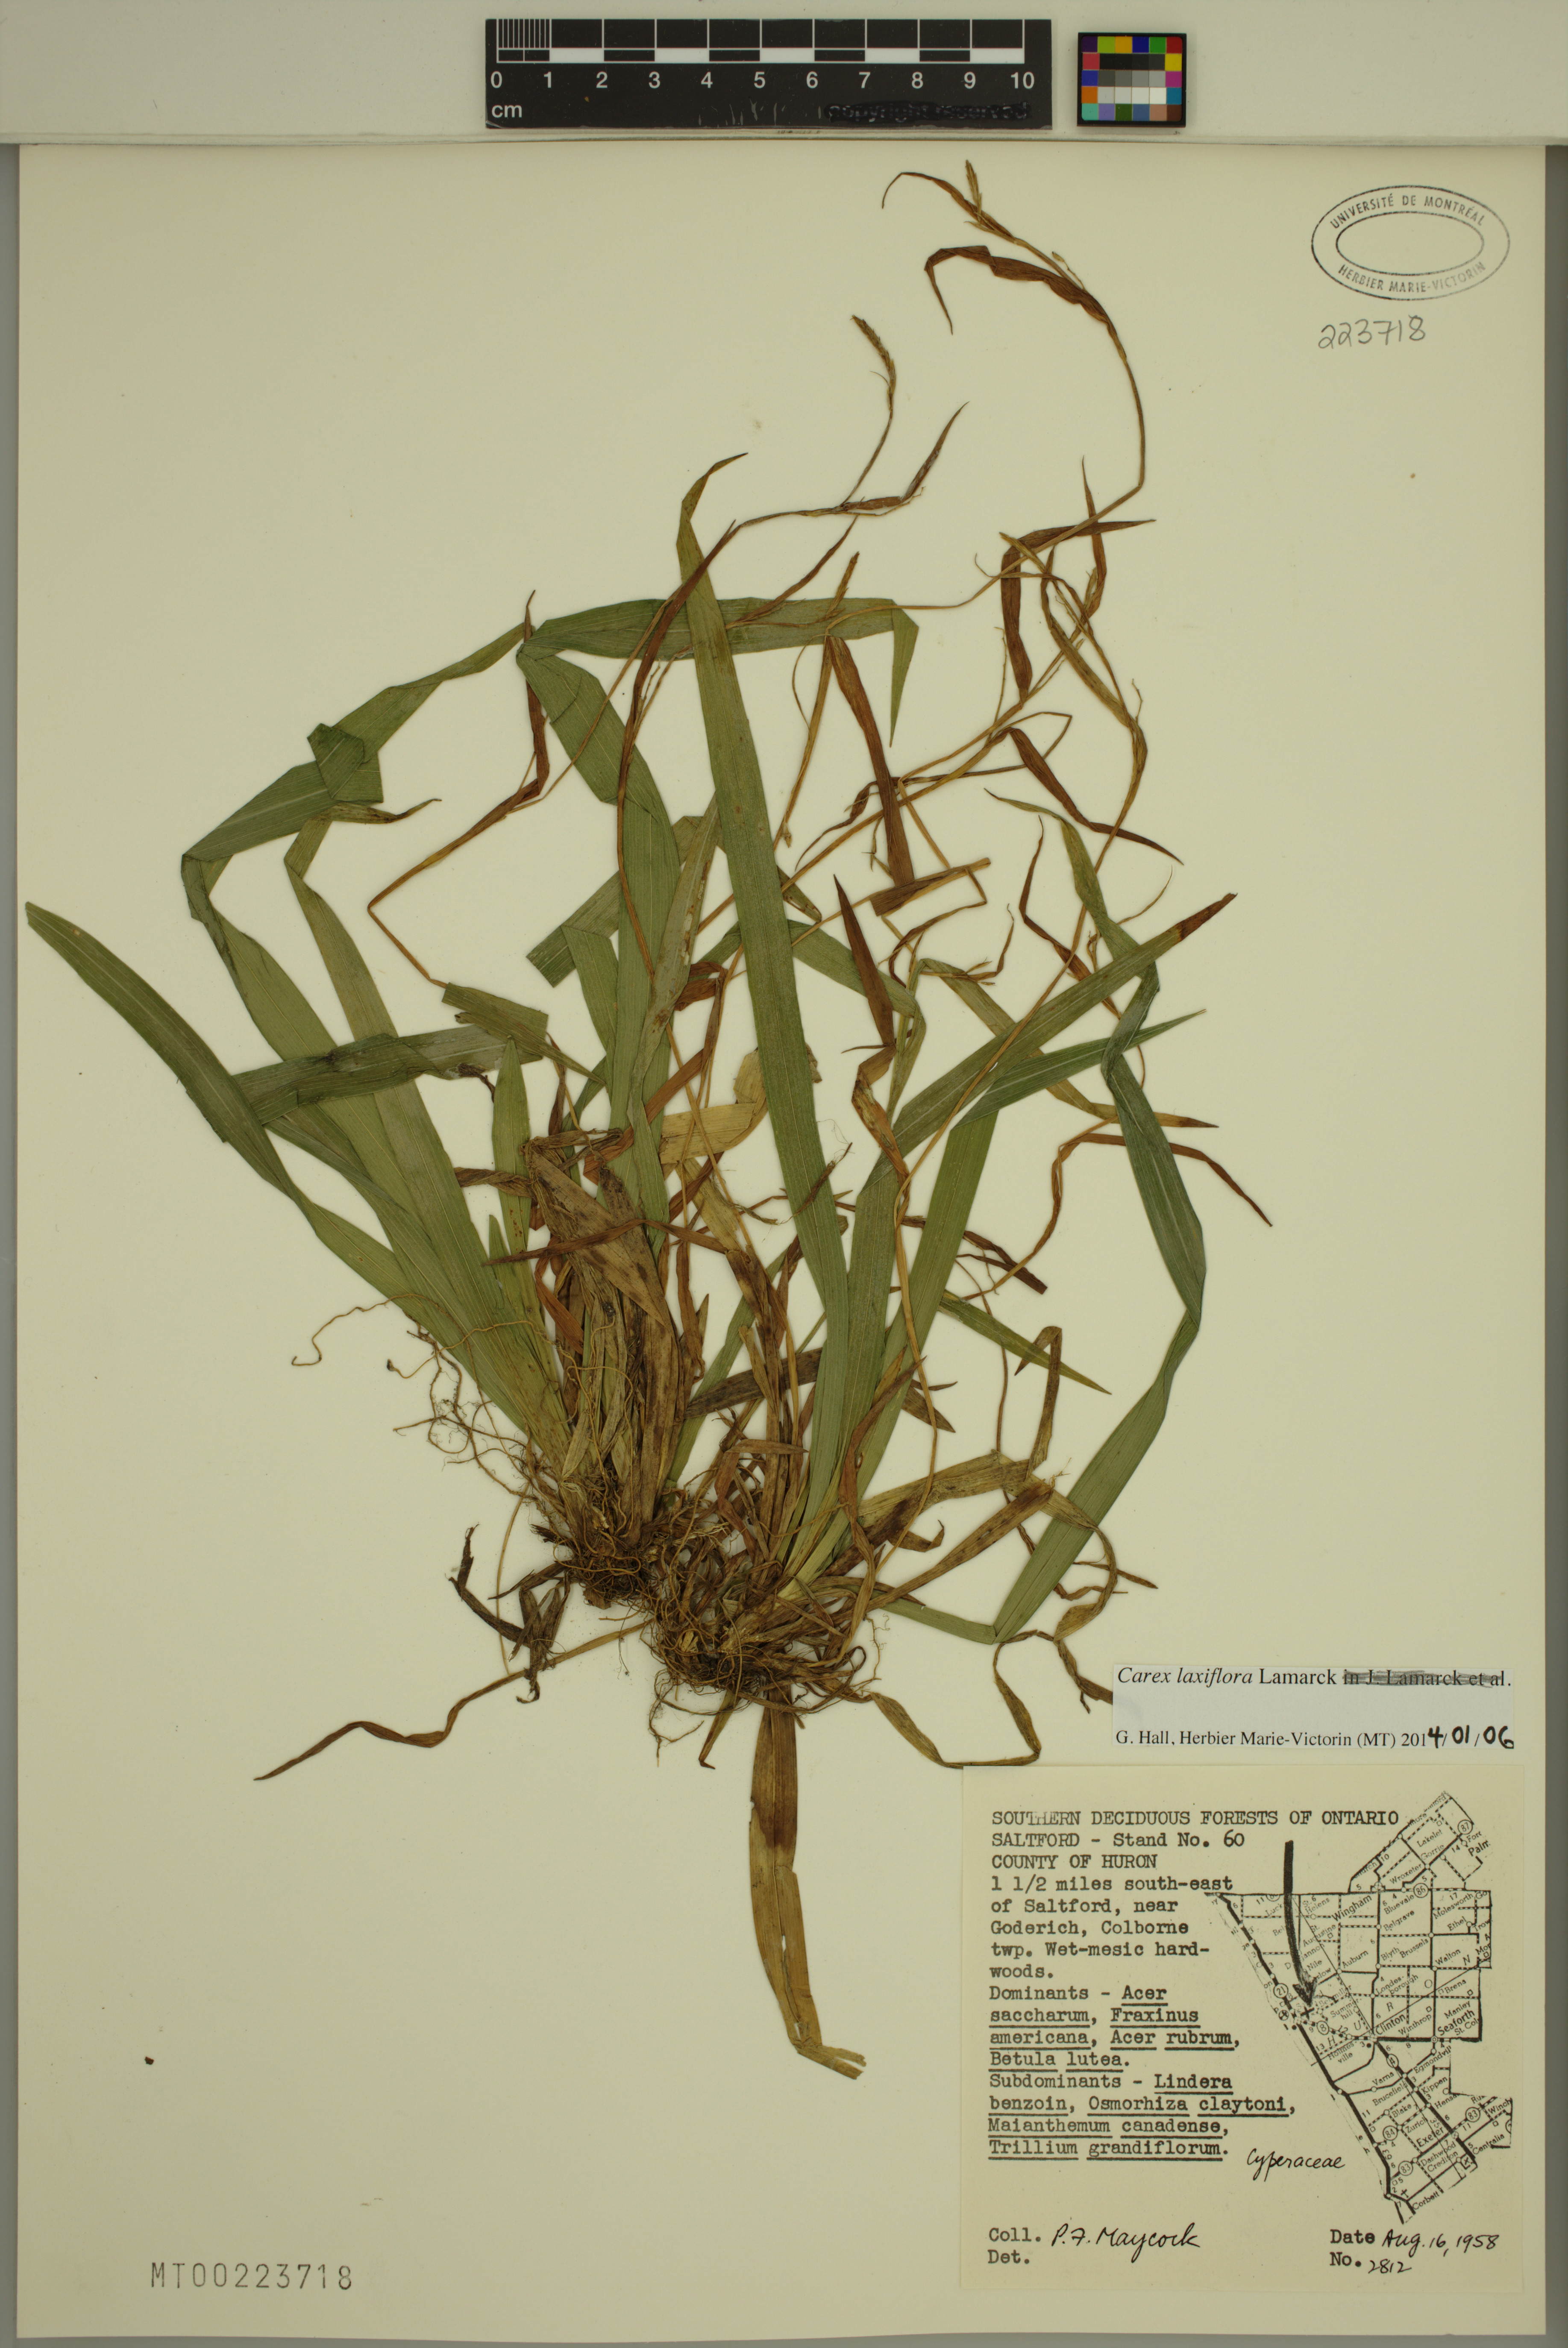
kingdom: Plantae
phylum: Tracheophyta
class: Liliopsida
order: Poales
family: Cyperaceae
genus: Carex
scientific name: Carex laxiflora
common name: Beech wood sedge
